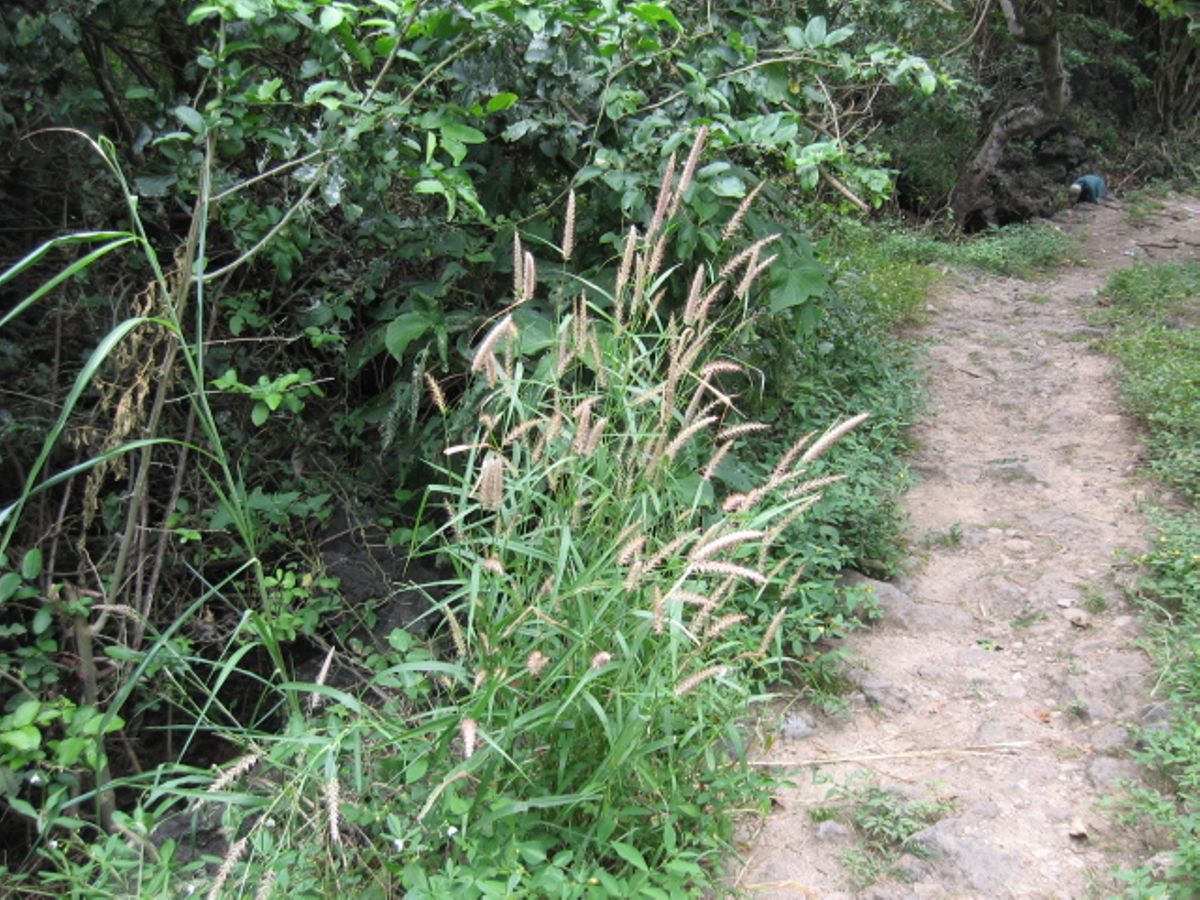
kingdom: Plantae
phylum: Tracheophyta
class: Liliopsida
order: Poales
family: Poaceae
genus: Setaria
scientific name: Setaria parviflora
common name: Knotroot bristle-grass
